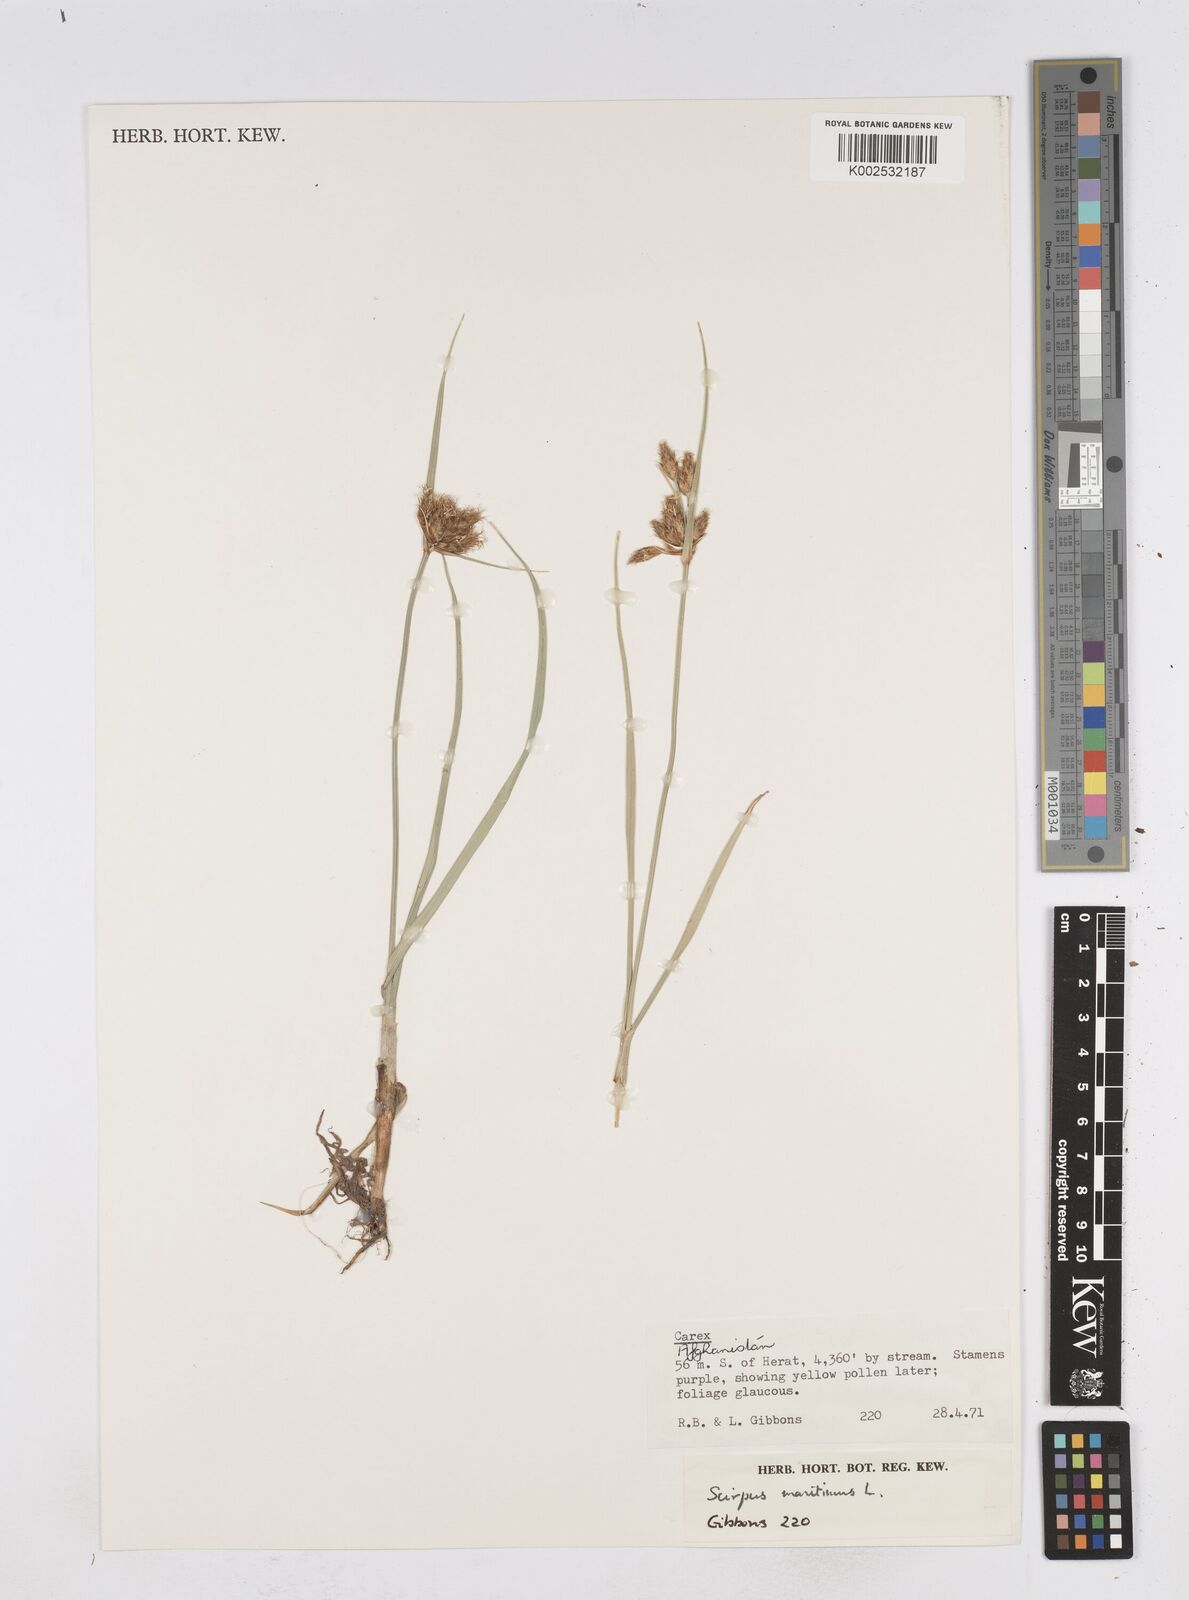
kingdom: Plantae
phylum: Tracheophyta
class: Liliopsida
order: Poales
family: Cyperaceae
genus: Bolboschoenus
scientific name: Bolboschoenus maritimus
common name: Sea club-rush
